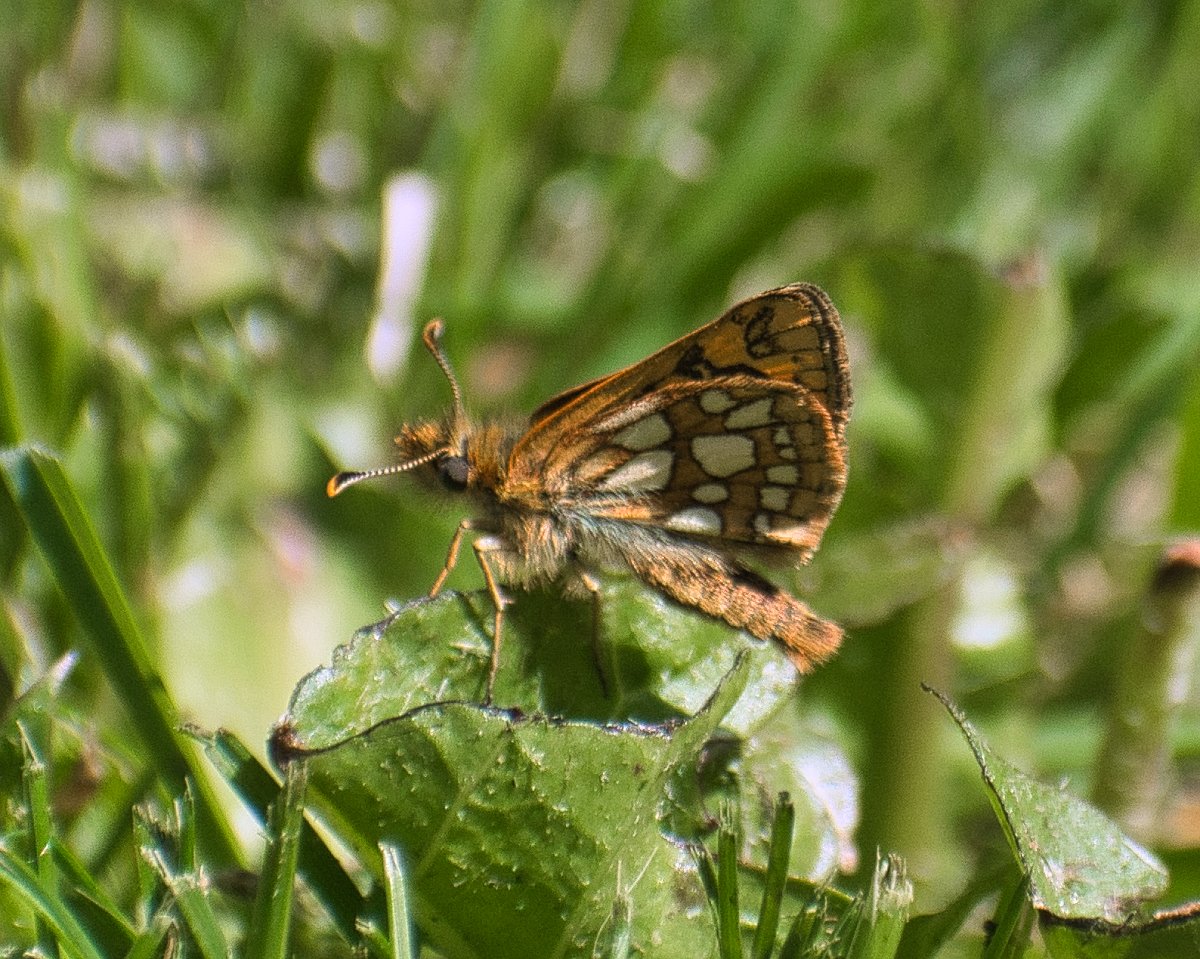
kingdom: Animalia
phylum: Arthropoda
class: Insecta
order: Lepidoptera
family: Hesperiidae
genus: Carterocephalus
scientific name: Carterocephalus palaemon
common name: Chequered Skipper
